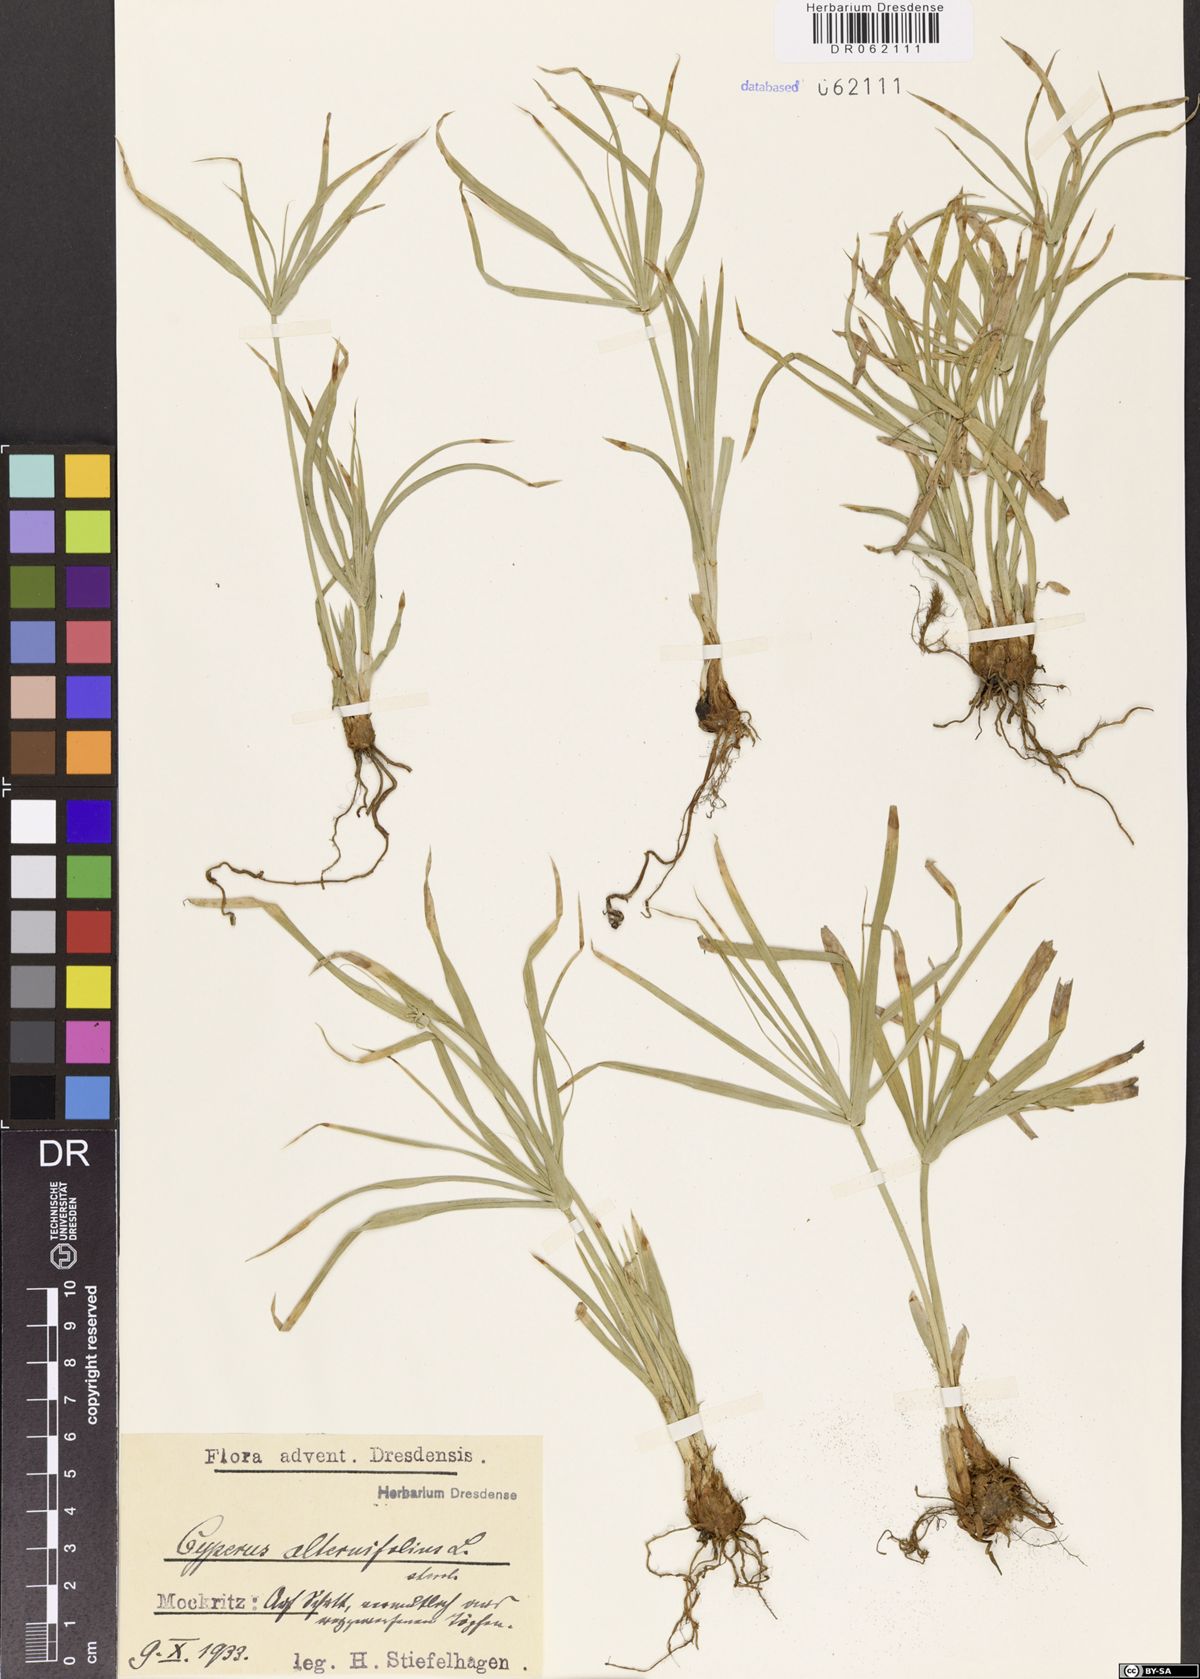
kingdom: Plantae
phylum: Tracheophyta
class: Liliopsida
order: Poales
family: Cyperaceae
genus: Cyperus
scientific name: Cyperus alternifolius
